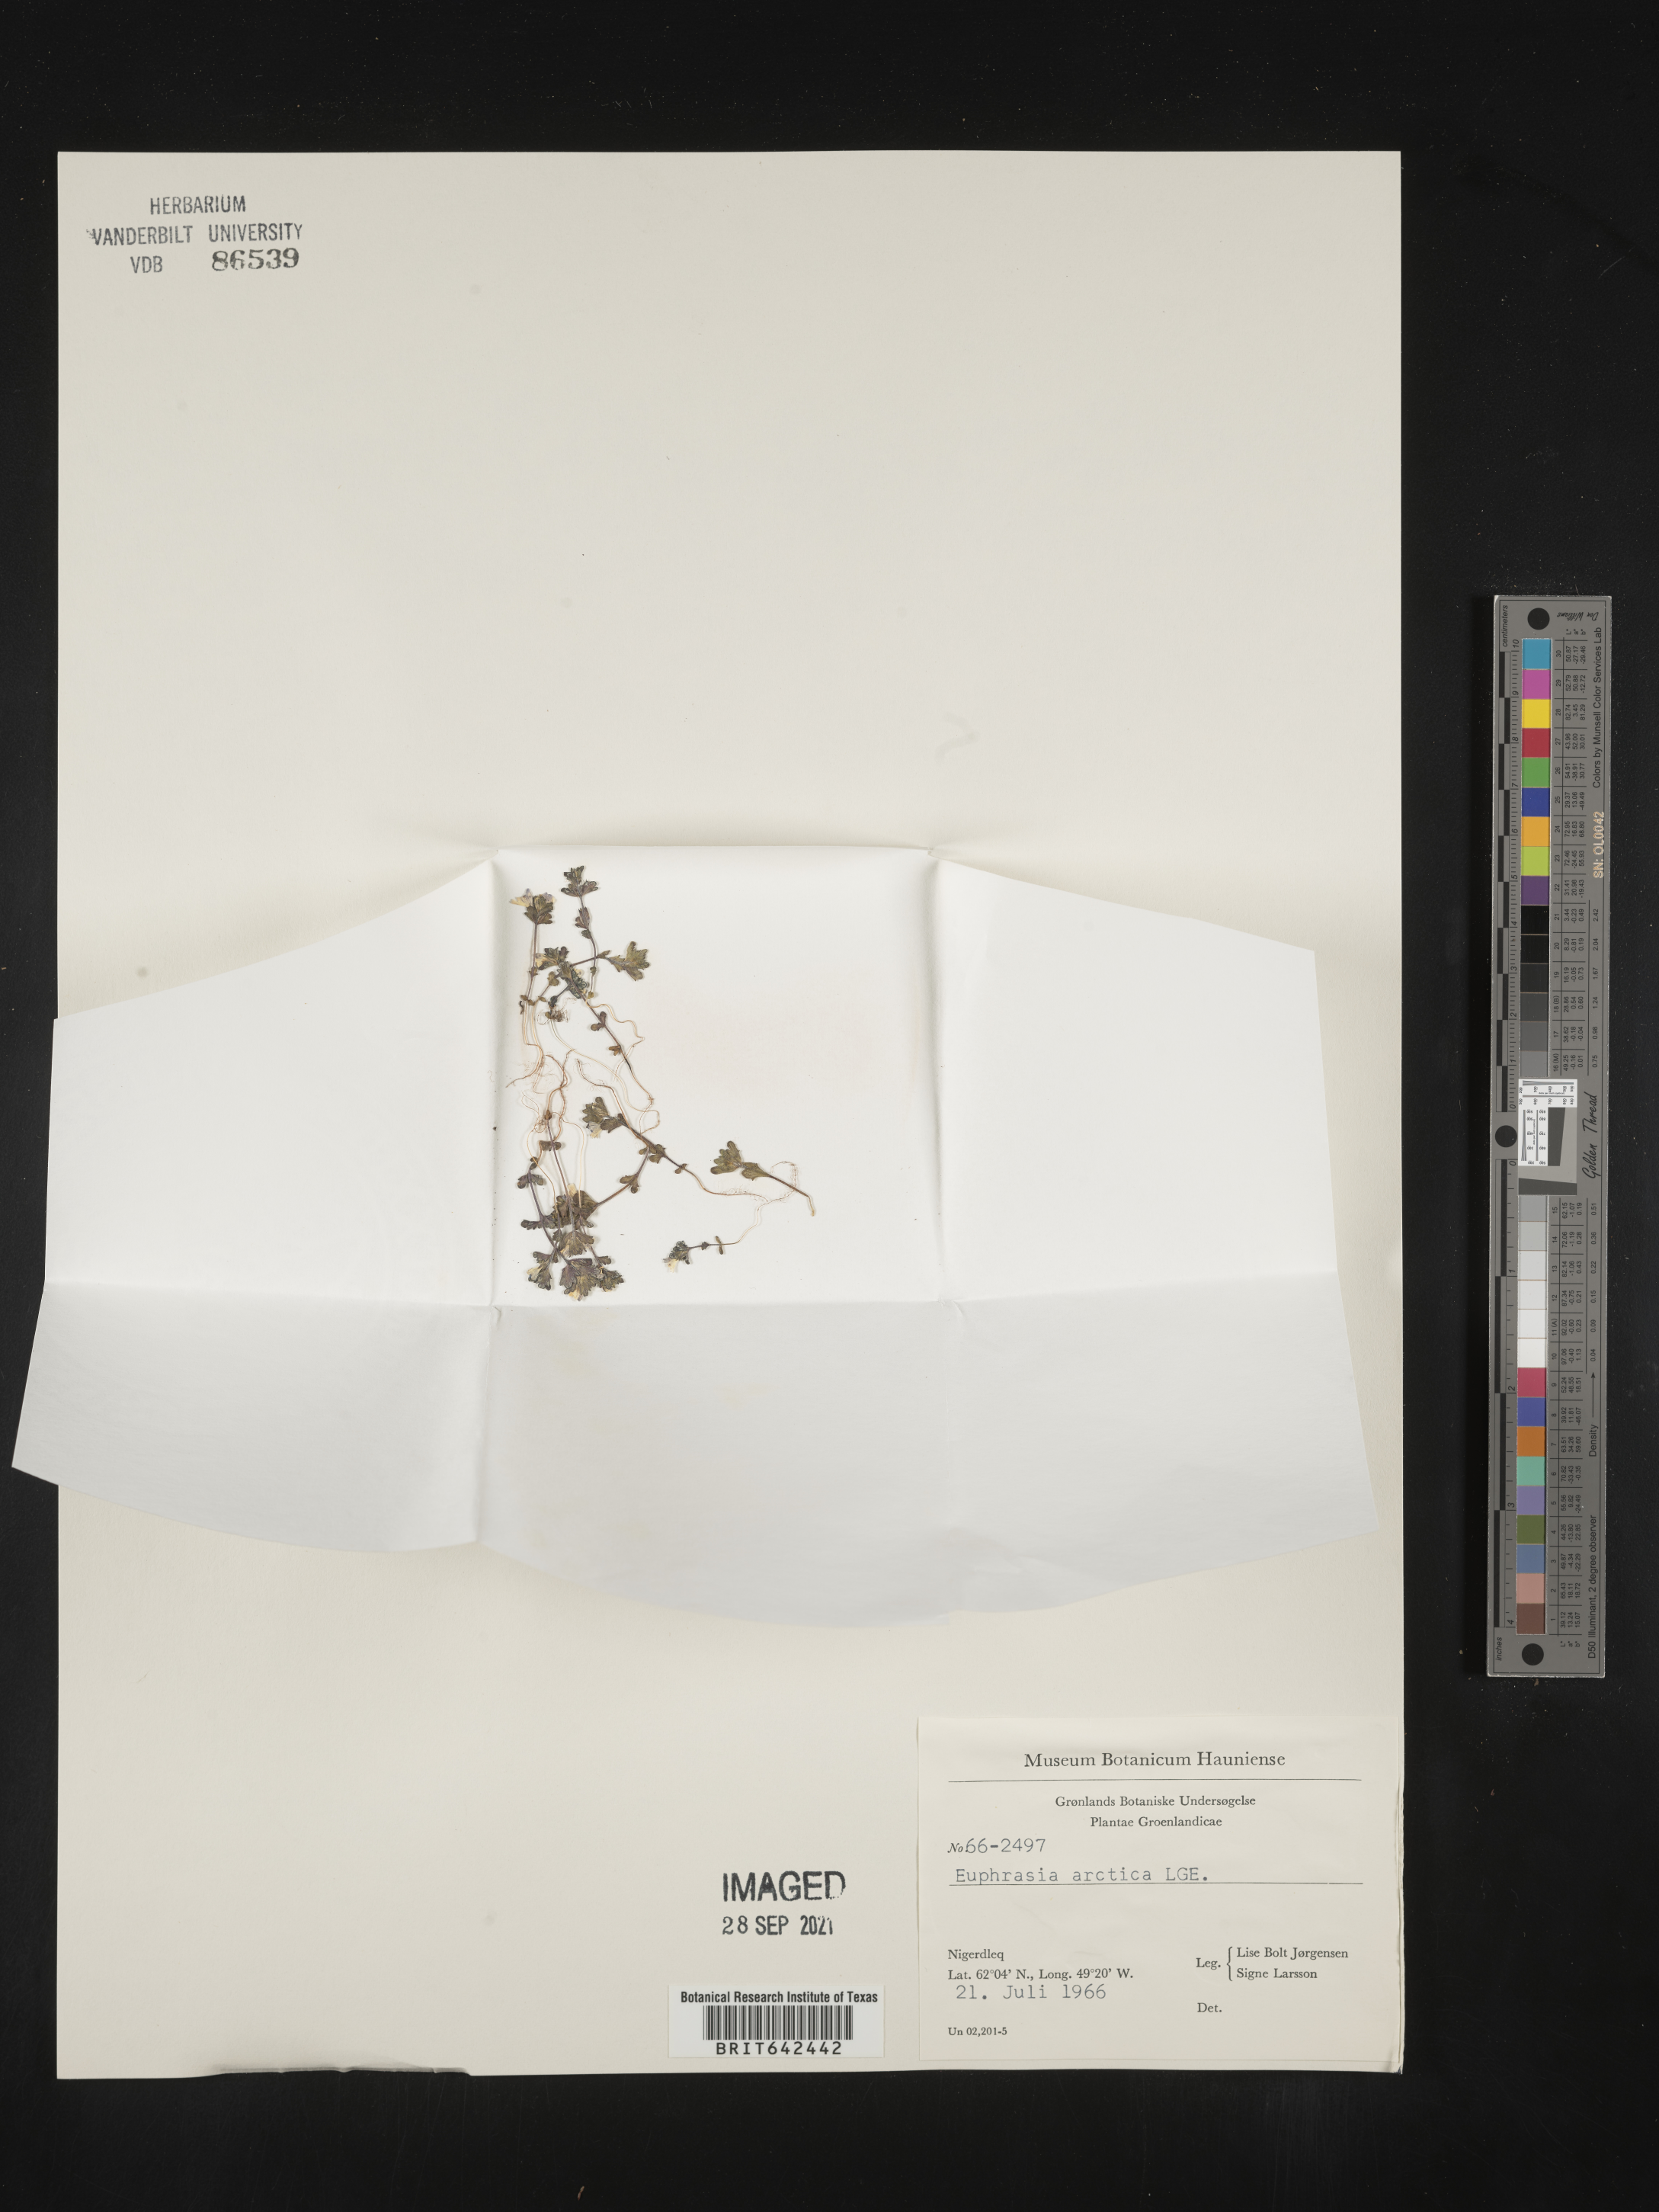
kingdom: Plantae
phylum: Tracheophyta
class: Magnoliopsida
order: Lamiales
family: Orobanchaceae
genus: Euphrasia
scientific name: Euphrasia
